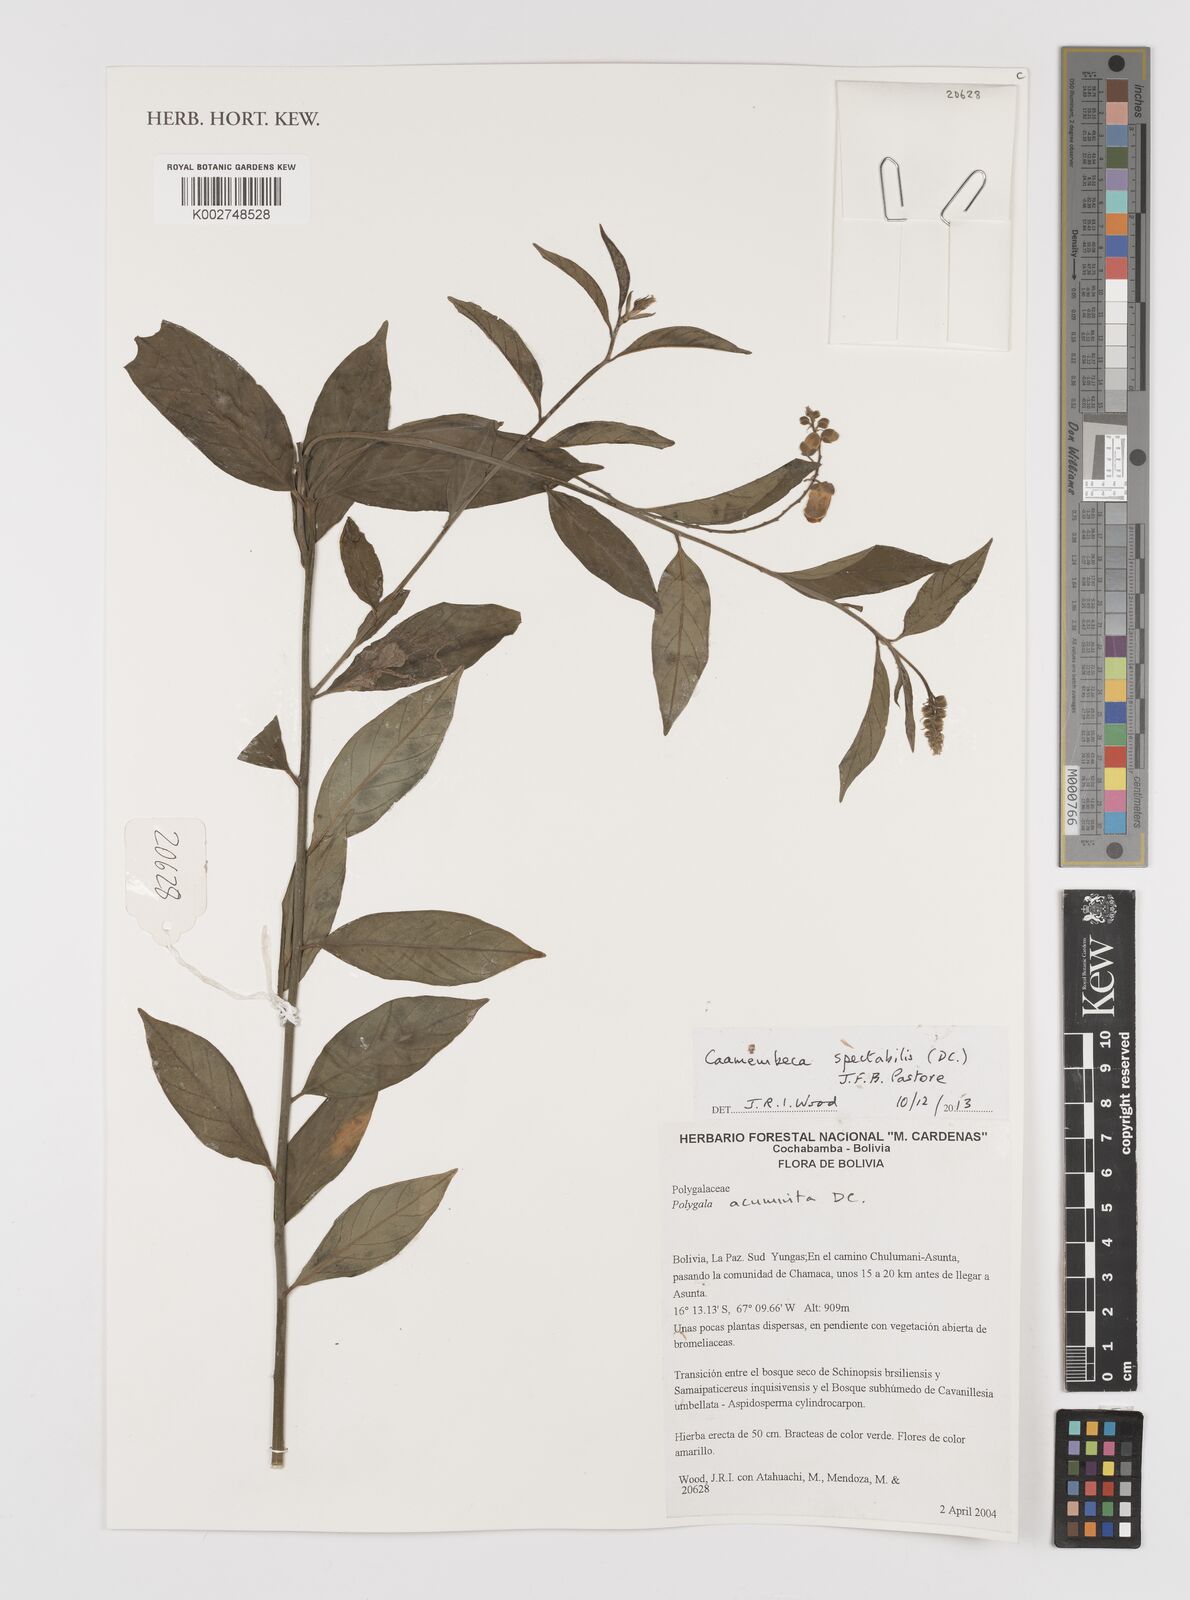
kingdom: Plantae
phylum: Tracheophyta
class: Magnoliopsida
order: Fabales
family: Polygalaceae
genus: Caamembeca
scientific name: Caamembeca spectabilis
